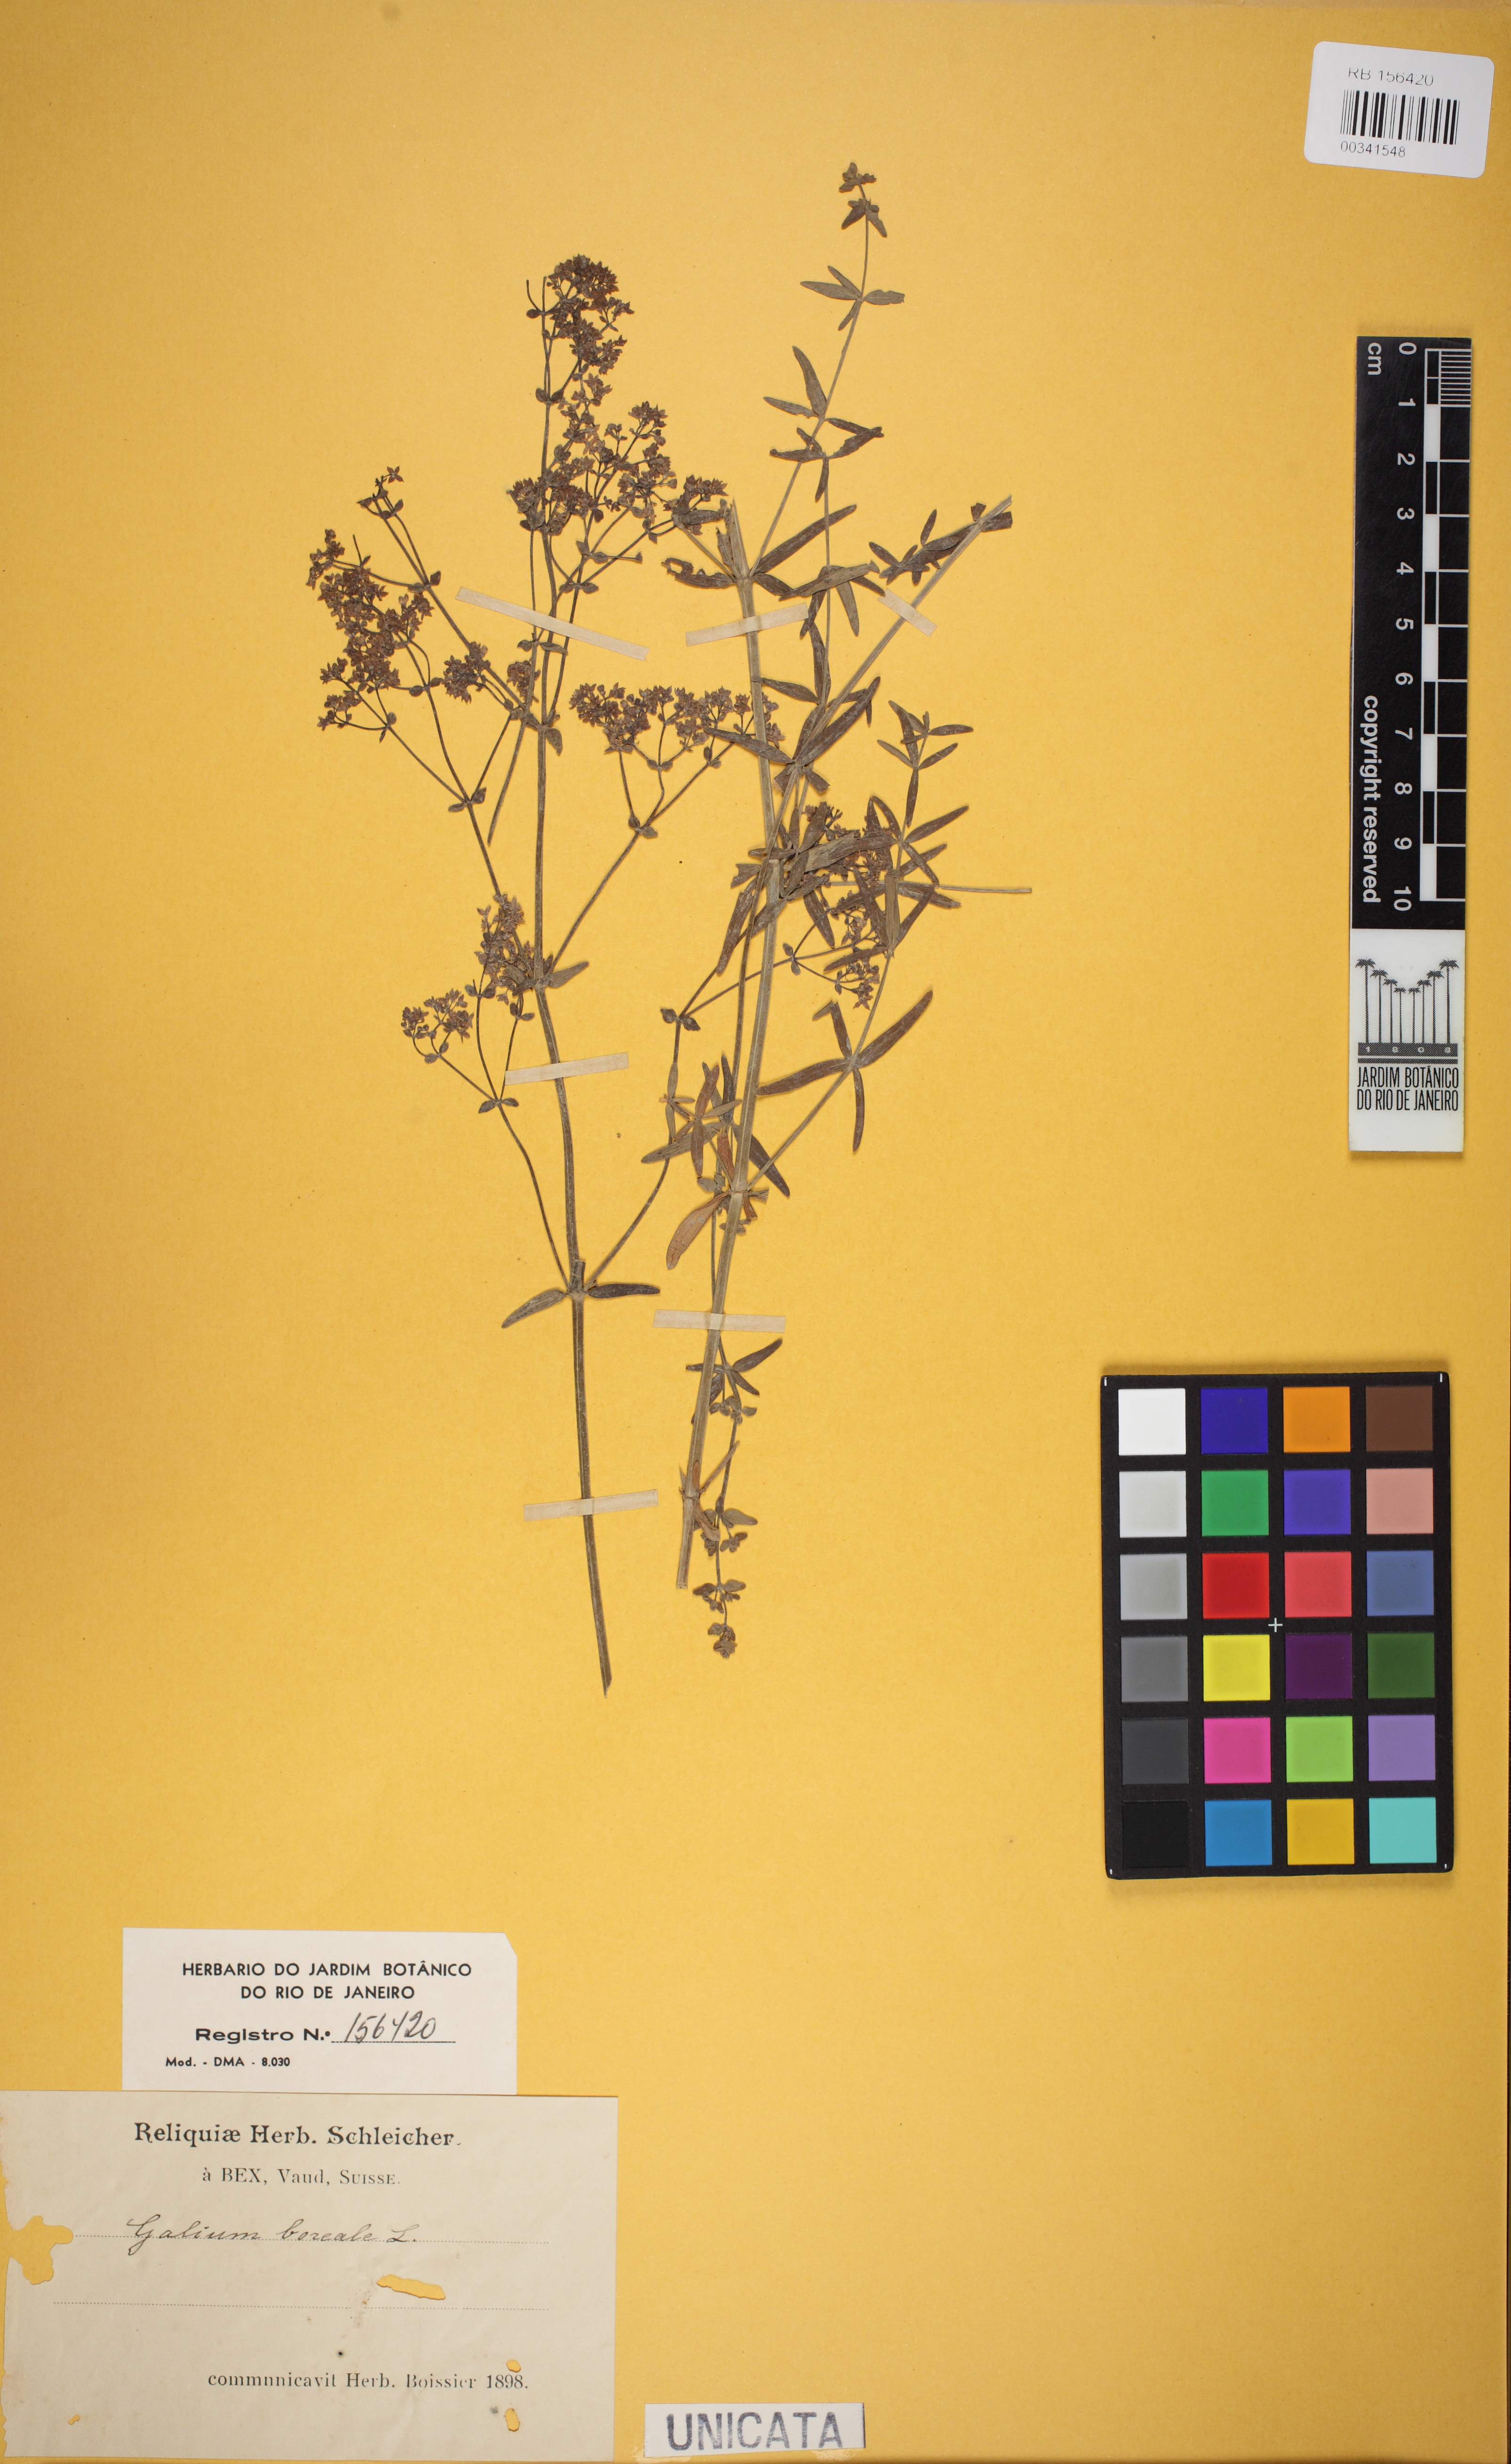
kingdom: Plantae
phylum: Tracheophyta
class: Magnoliopsida
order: Gentianales
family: Rubiaceae
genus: Galium
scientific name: Galium boreale
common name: Northern bedstraw
